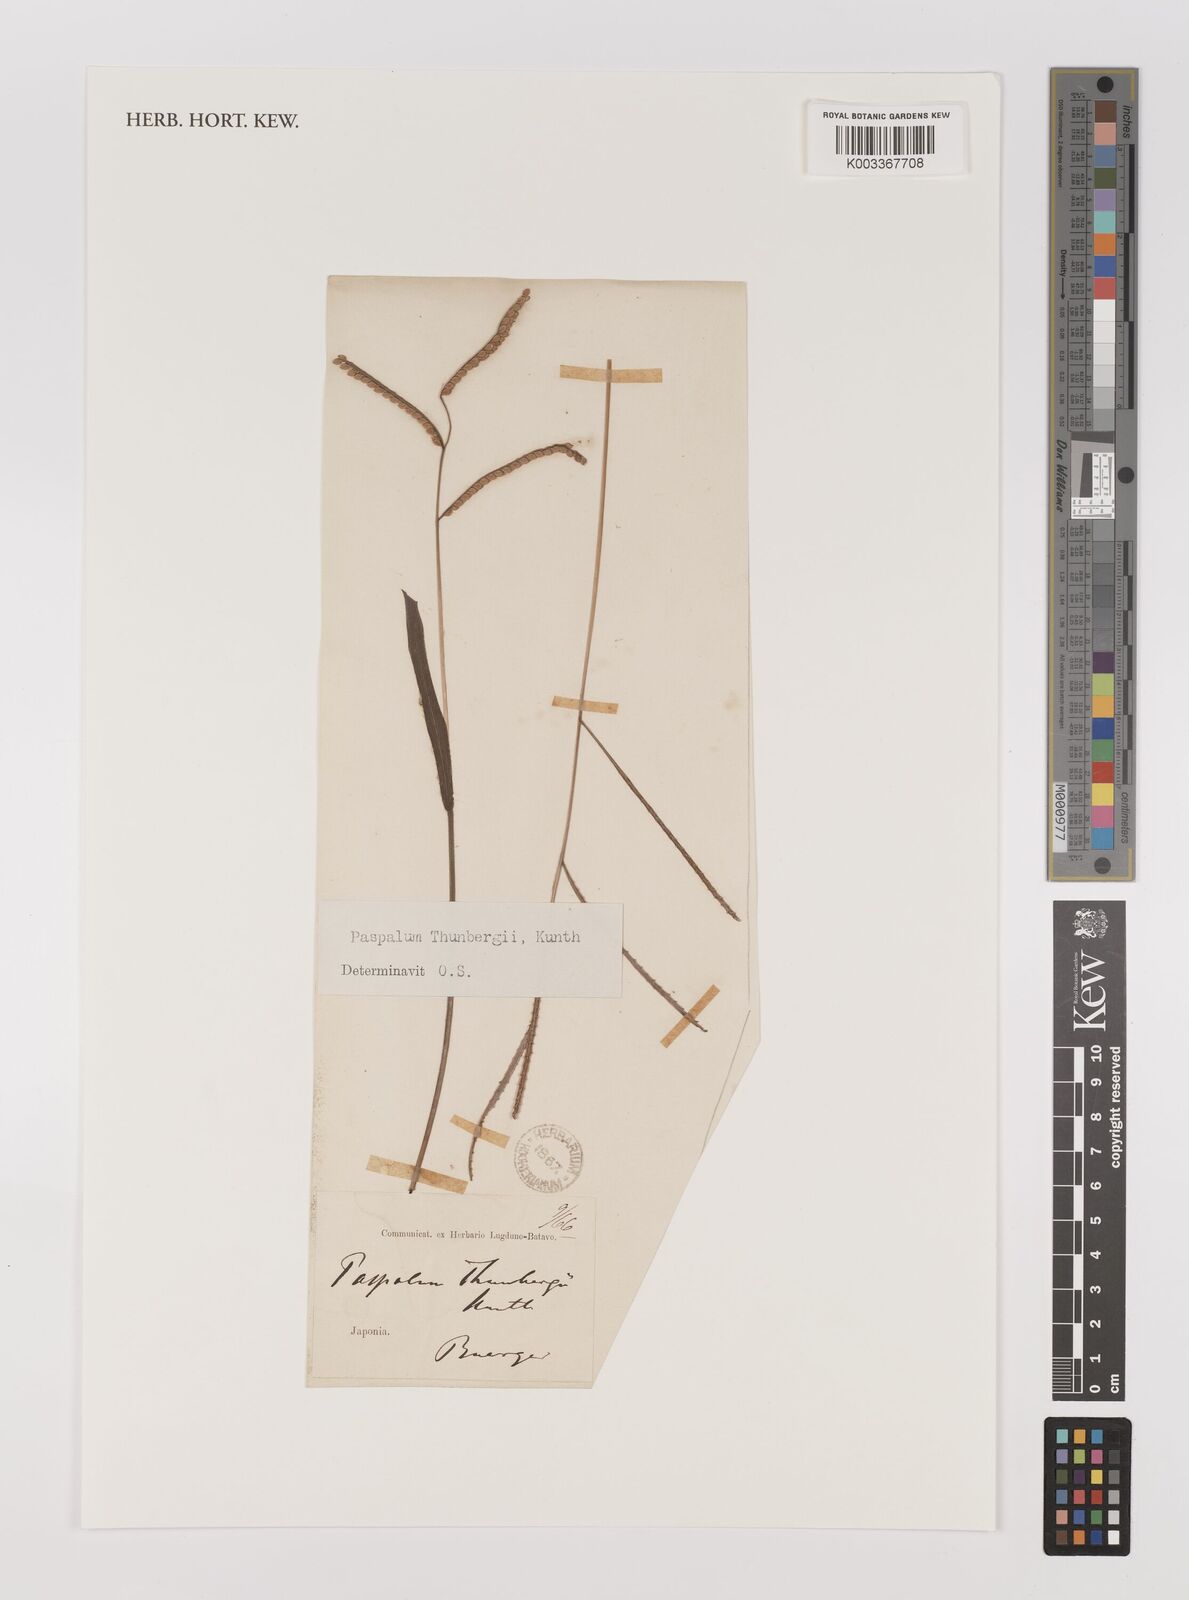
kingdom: Plantae
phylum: Tracheophyta
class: Liliopsida
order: Poales
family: Poaceae
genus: Panicum
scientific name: Panicum
